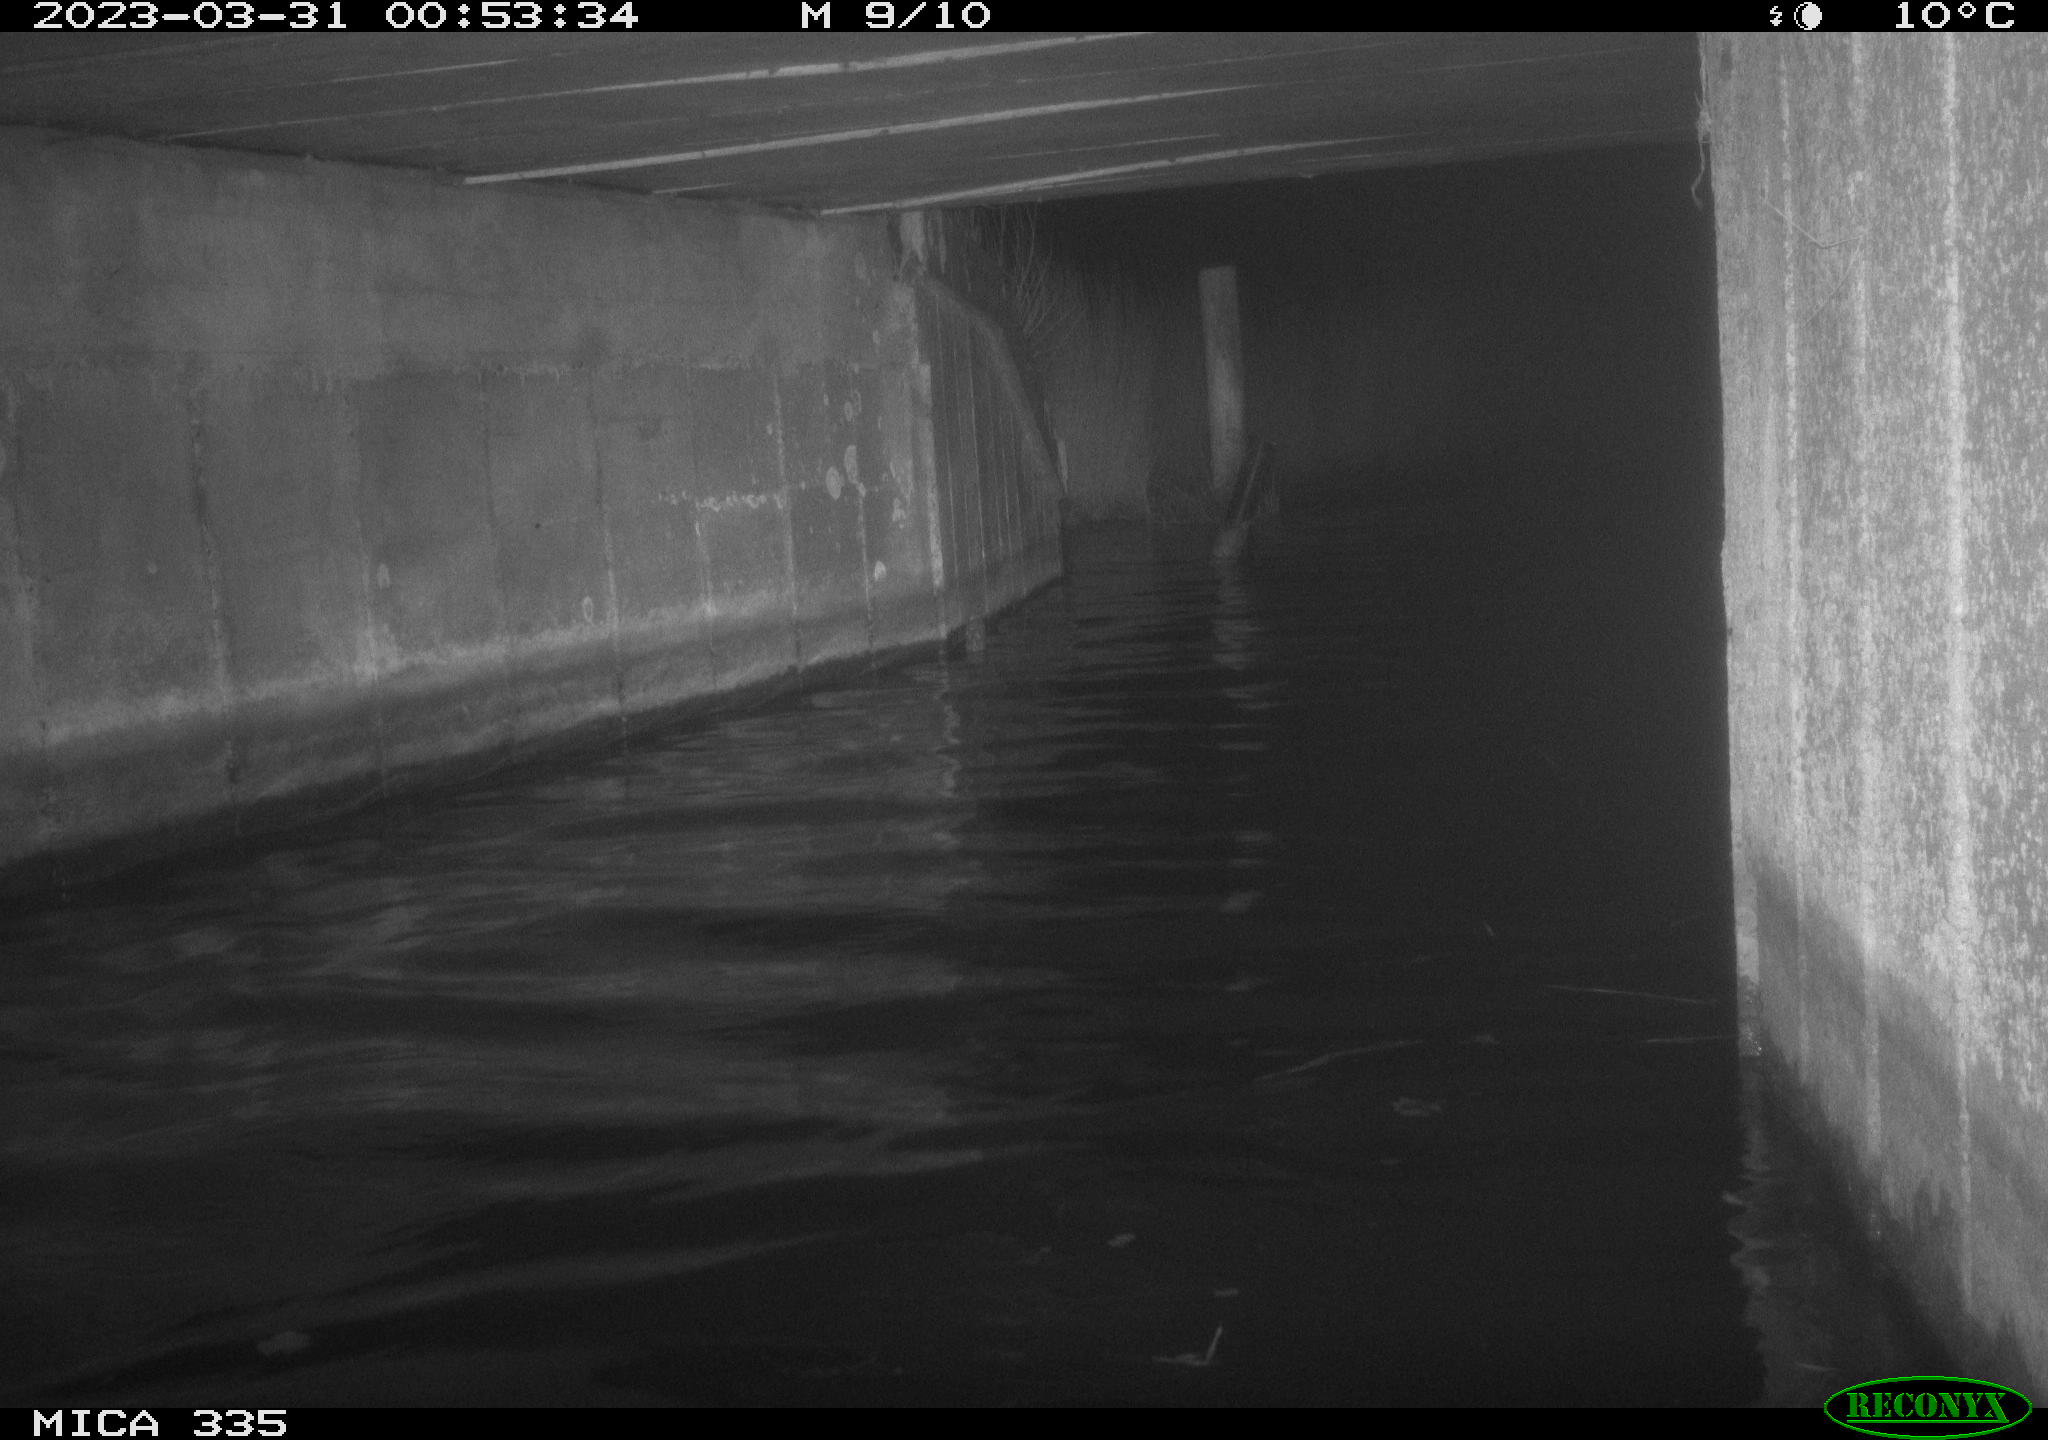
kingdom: Animalia
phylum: Chordata
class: Aves
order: Anseriformes
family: Anatidae
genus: Anas
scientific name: Anas
